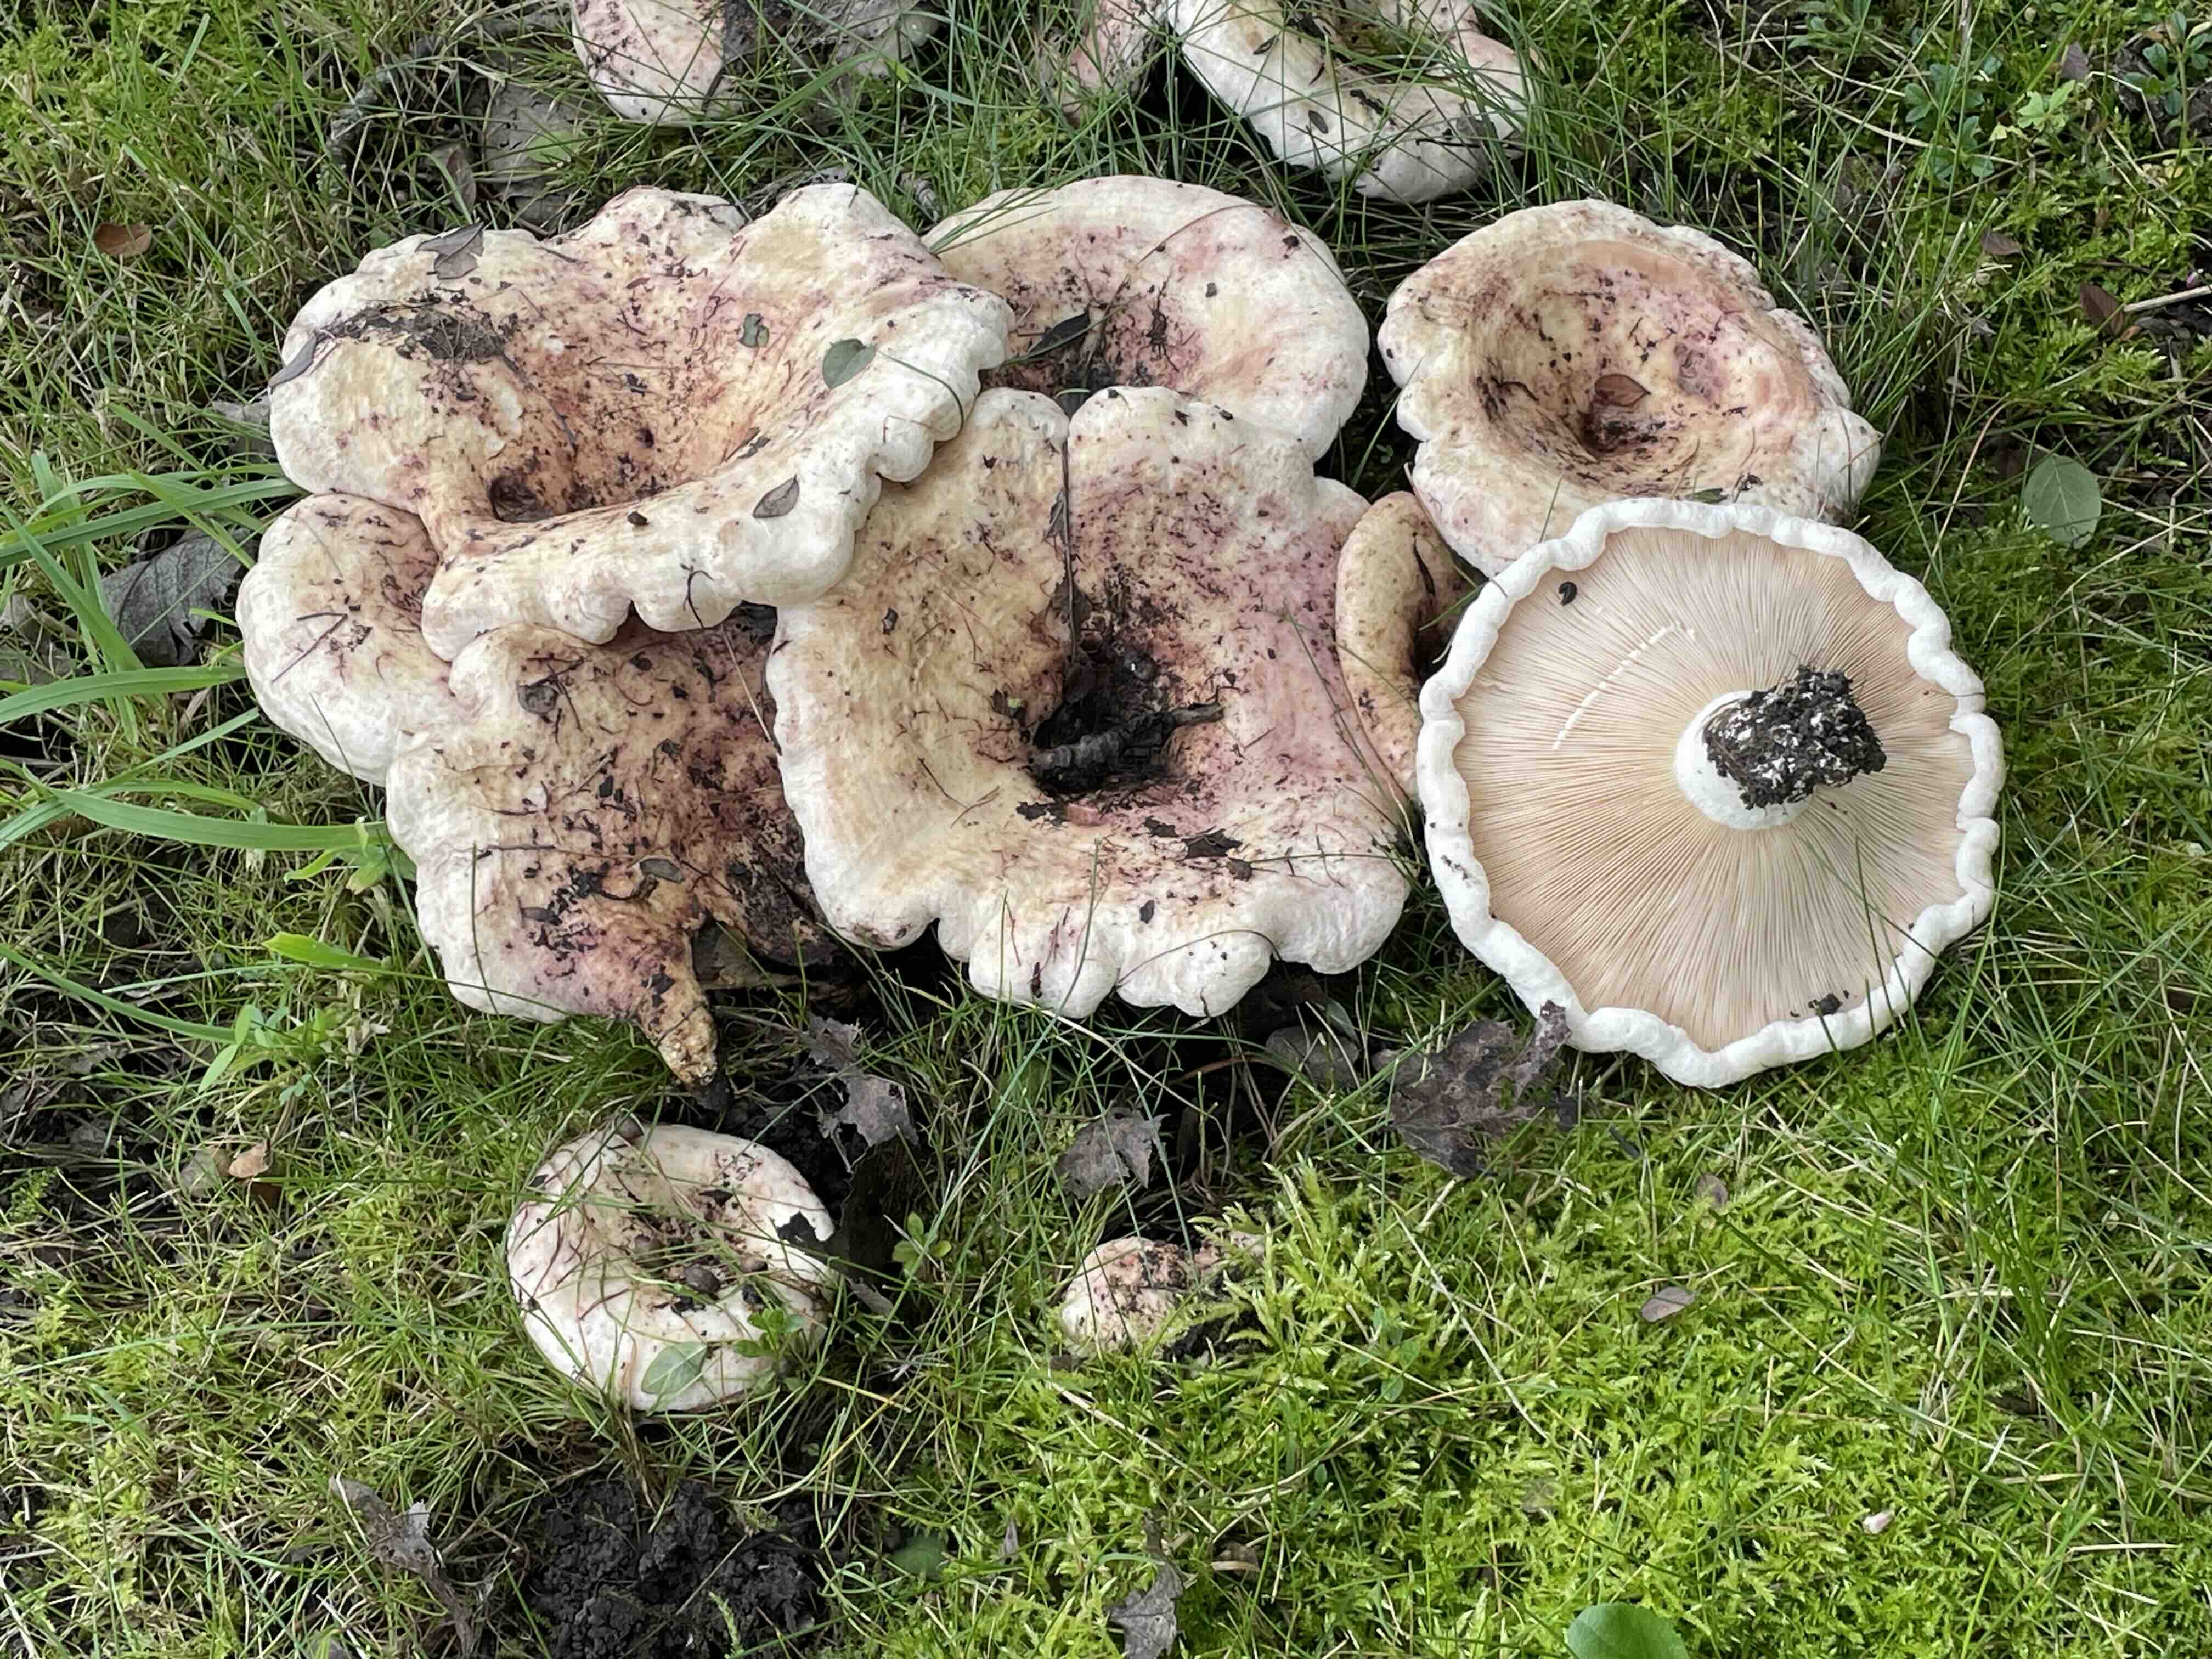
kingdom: Fungi
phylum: Basidiomycota
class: Agaricomycetes
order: Russulales
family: Russulaceae
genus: Lactarius
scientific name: Lactarius controversus
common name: rosabladet mælkehat
